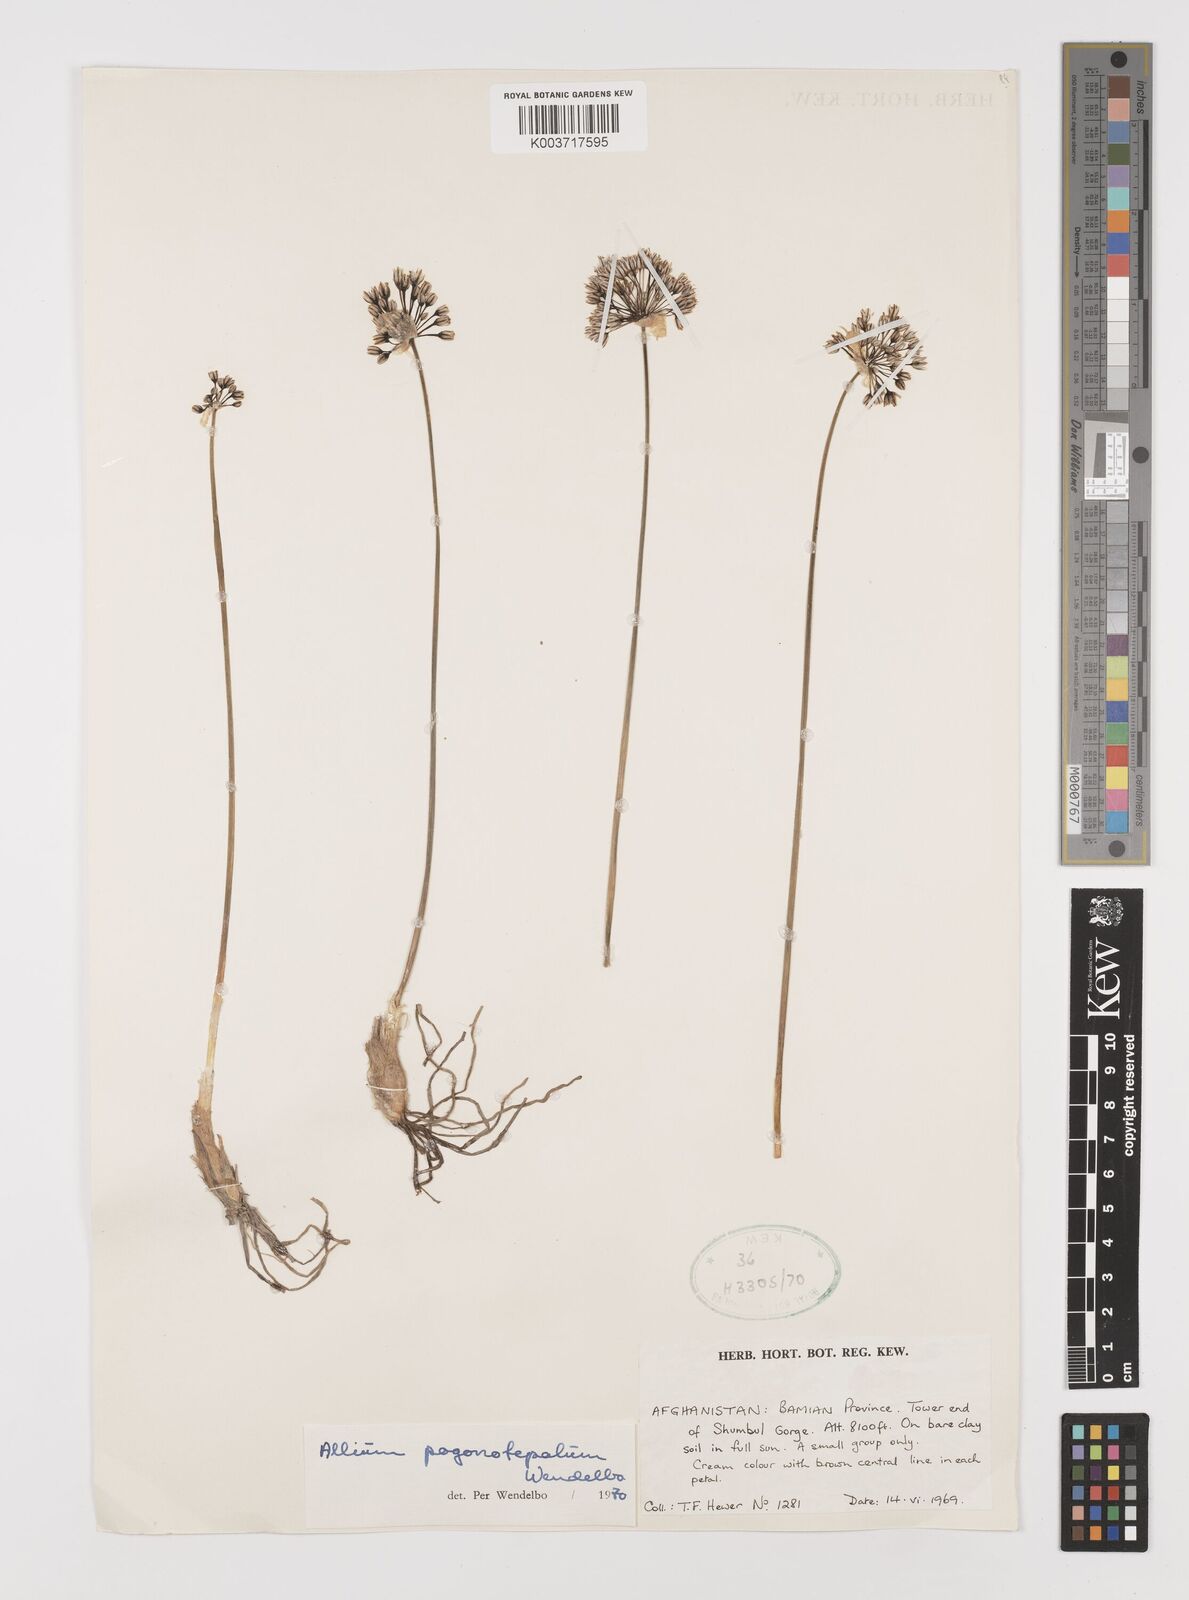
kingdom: Plantae
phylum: Tracheophyta
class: Liliopsida
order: Asparagales
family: Amaryllidaceae
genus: Allium
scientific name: Allium pogonotepalum
